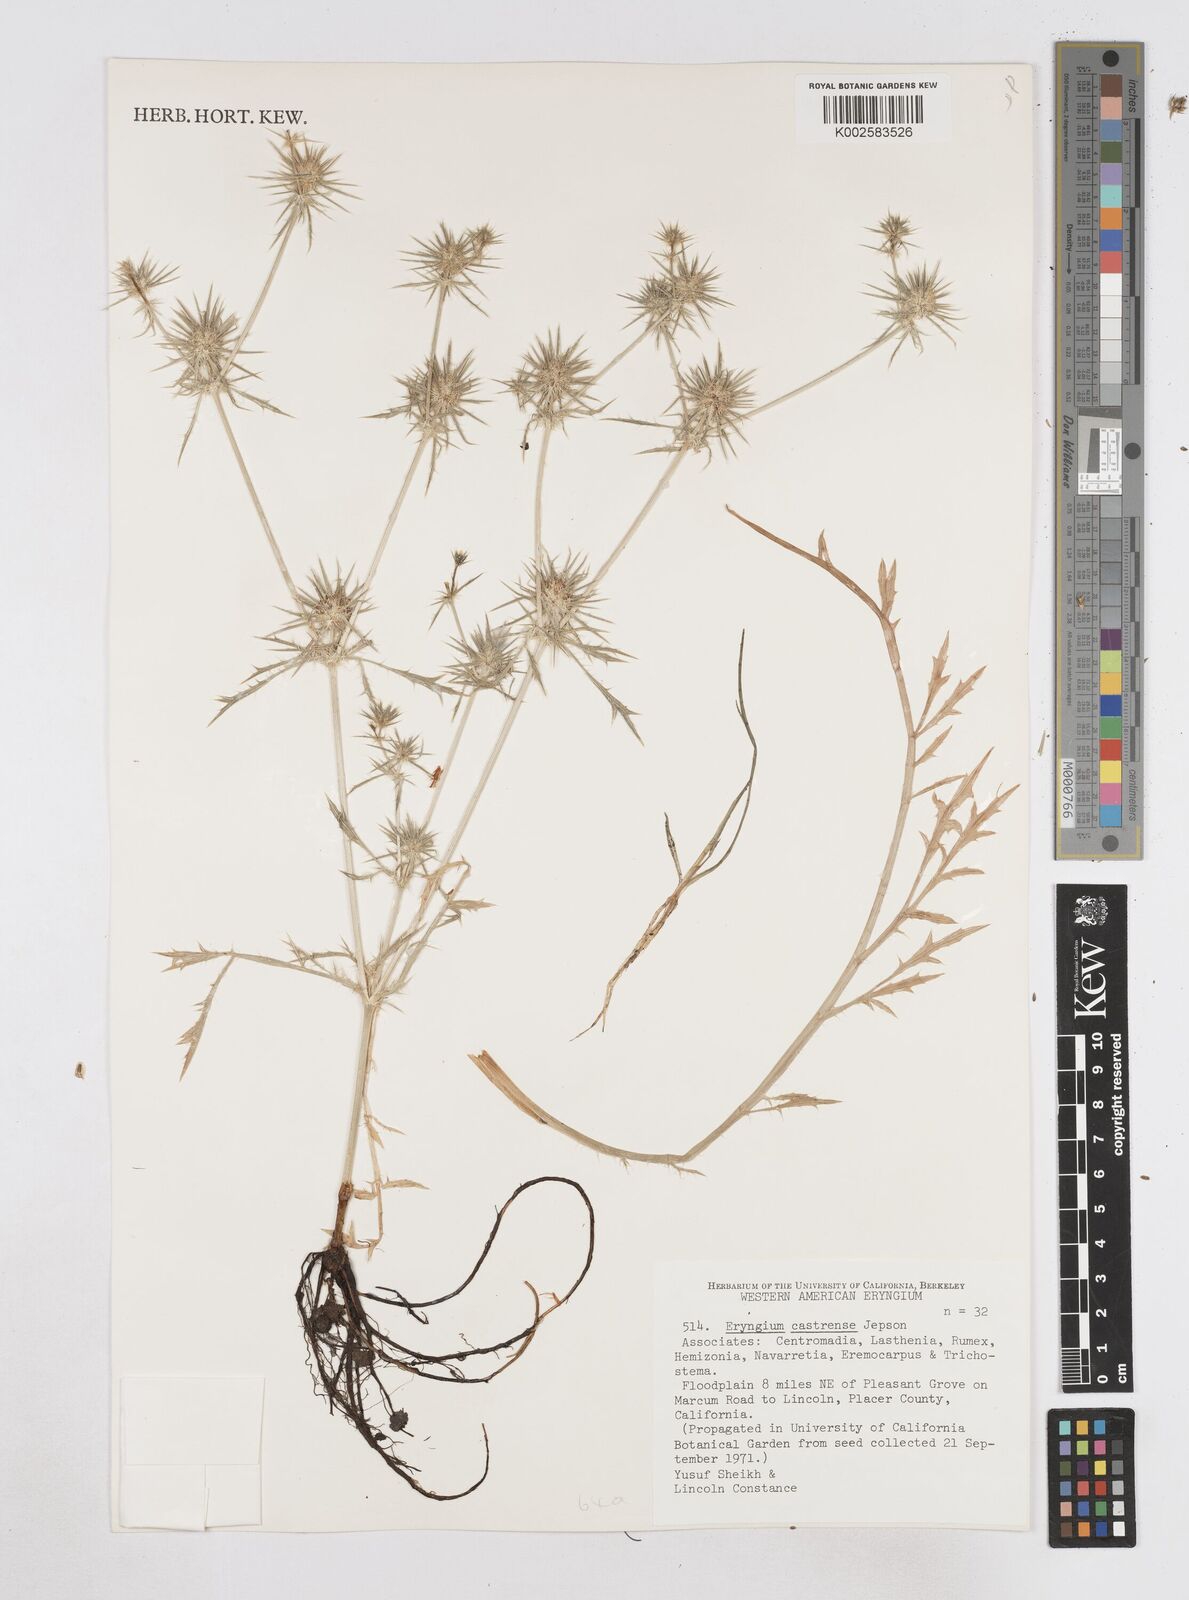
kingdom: Plantae
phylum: Tracheophyta
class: Magnoliopsida
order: Apiales
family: Apiaceae
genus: Eryngium
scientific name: Eryngium castrense
